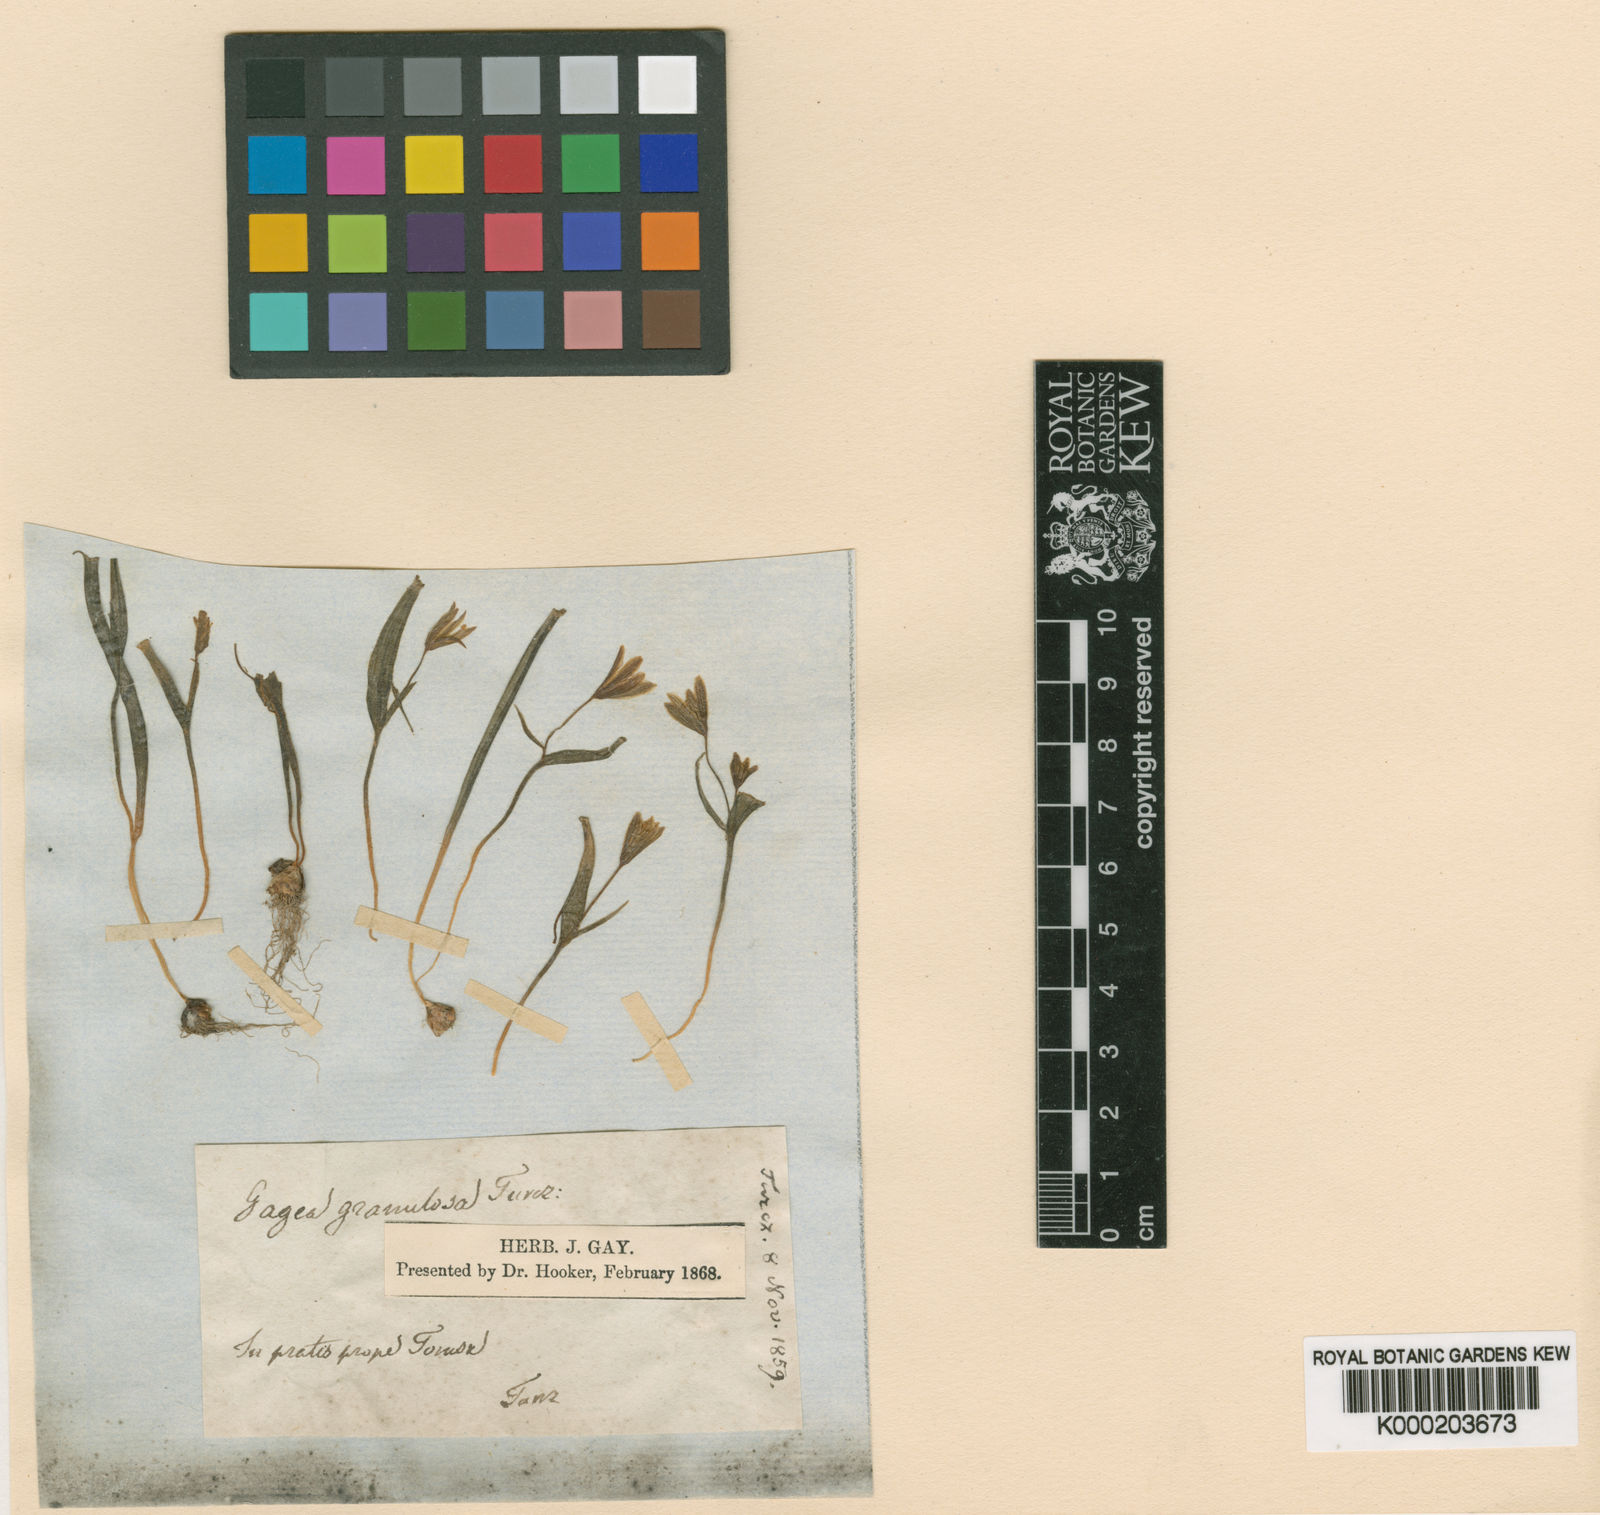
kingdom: Plantae
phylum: Tracheophyta
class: Liliopsida
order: Liliales
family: Liliaceae
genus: Gagea
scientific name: Gagea granulosa
